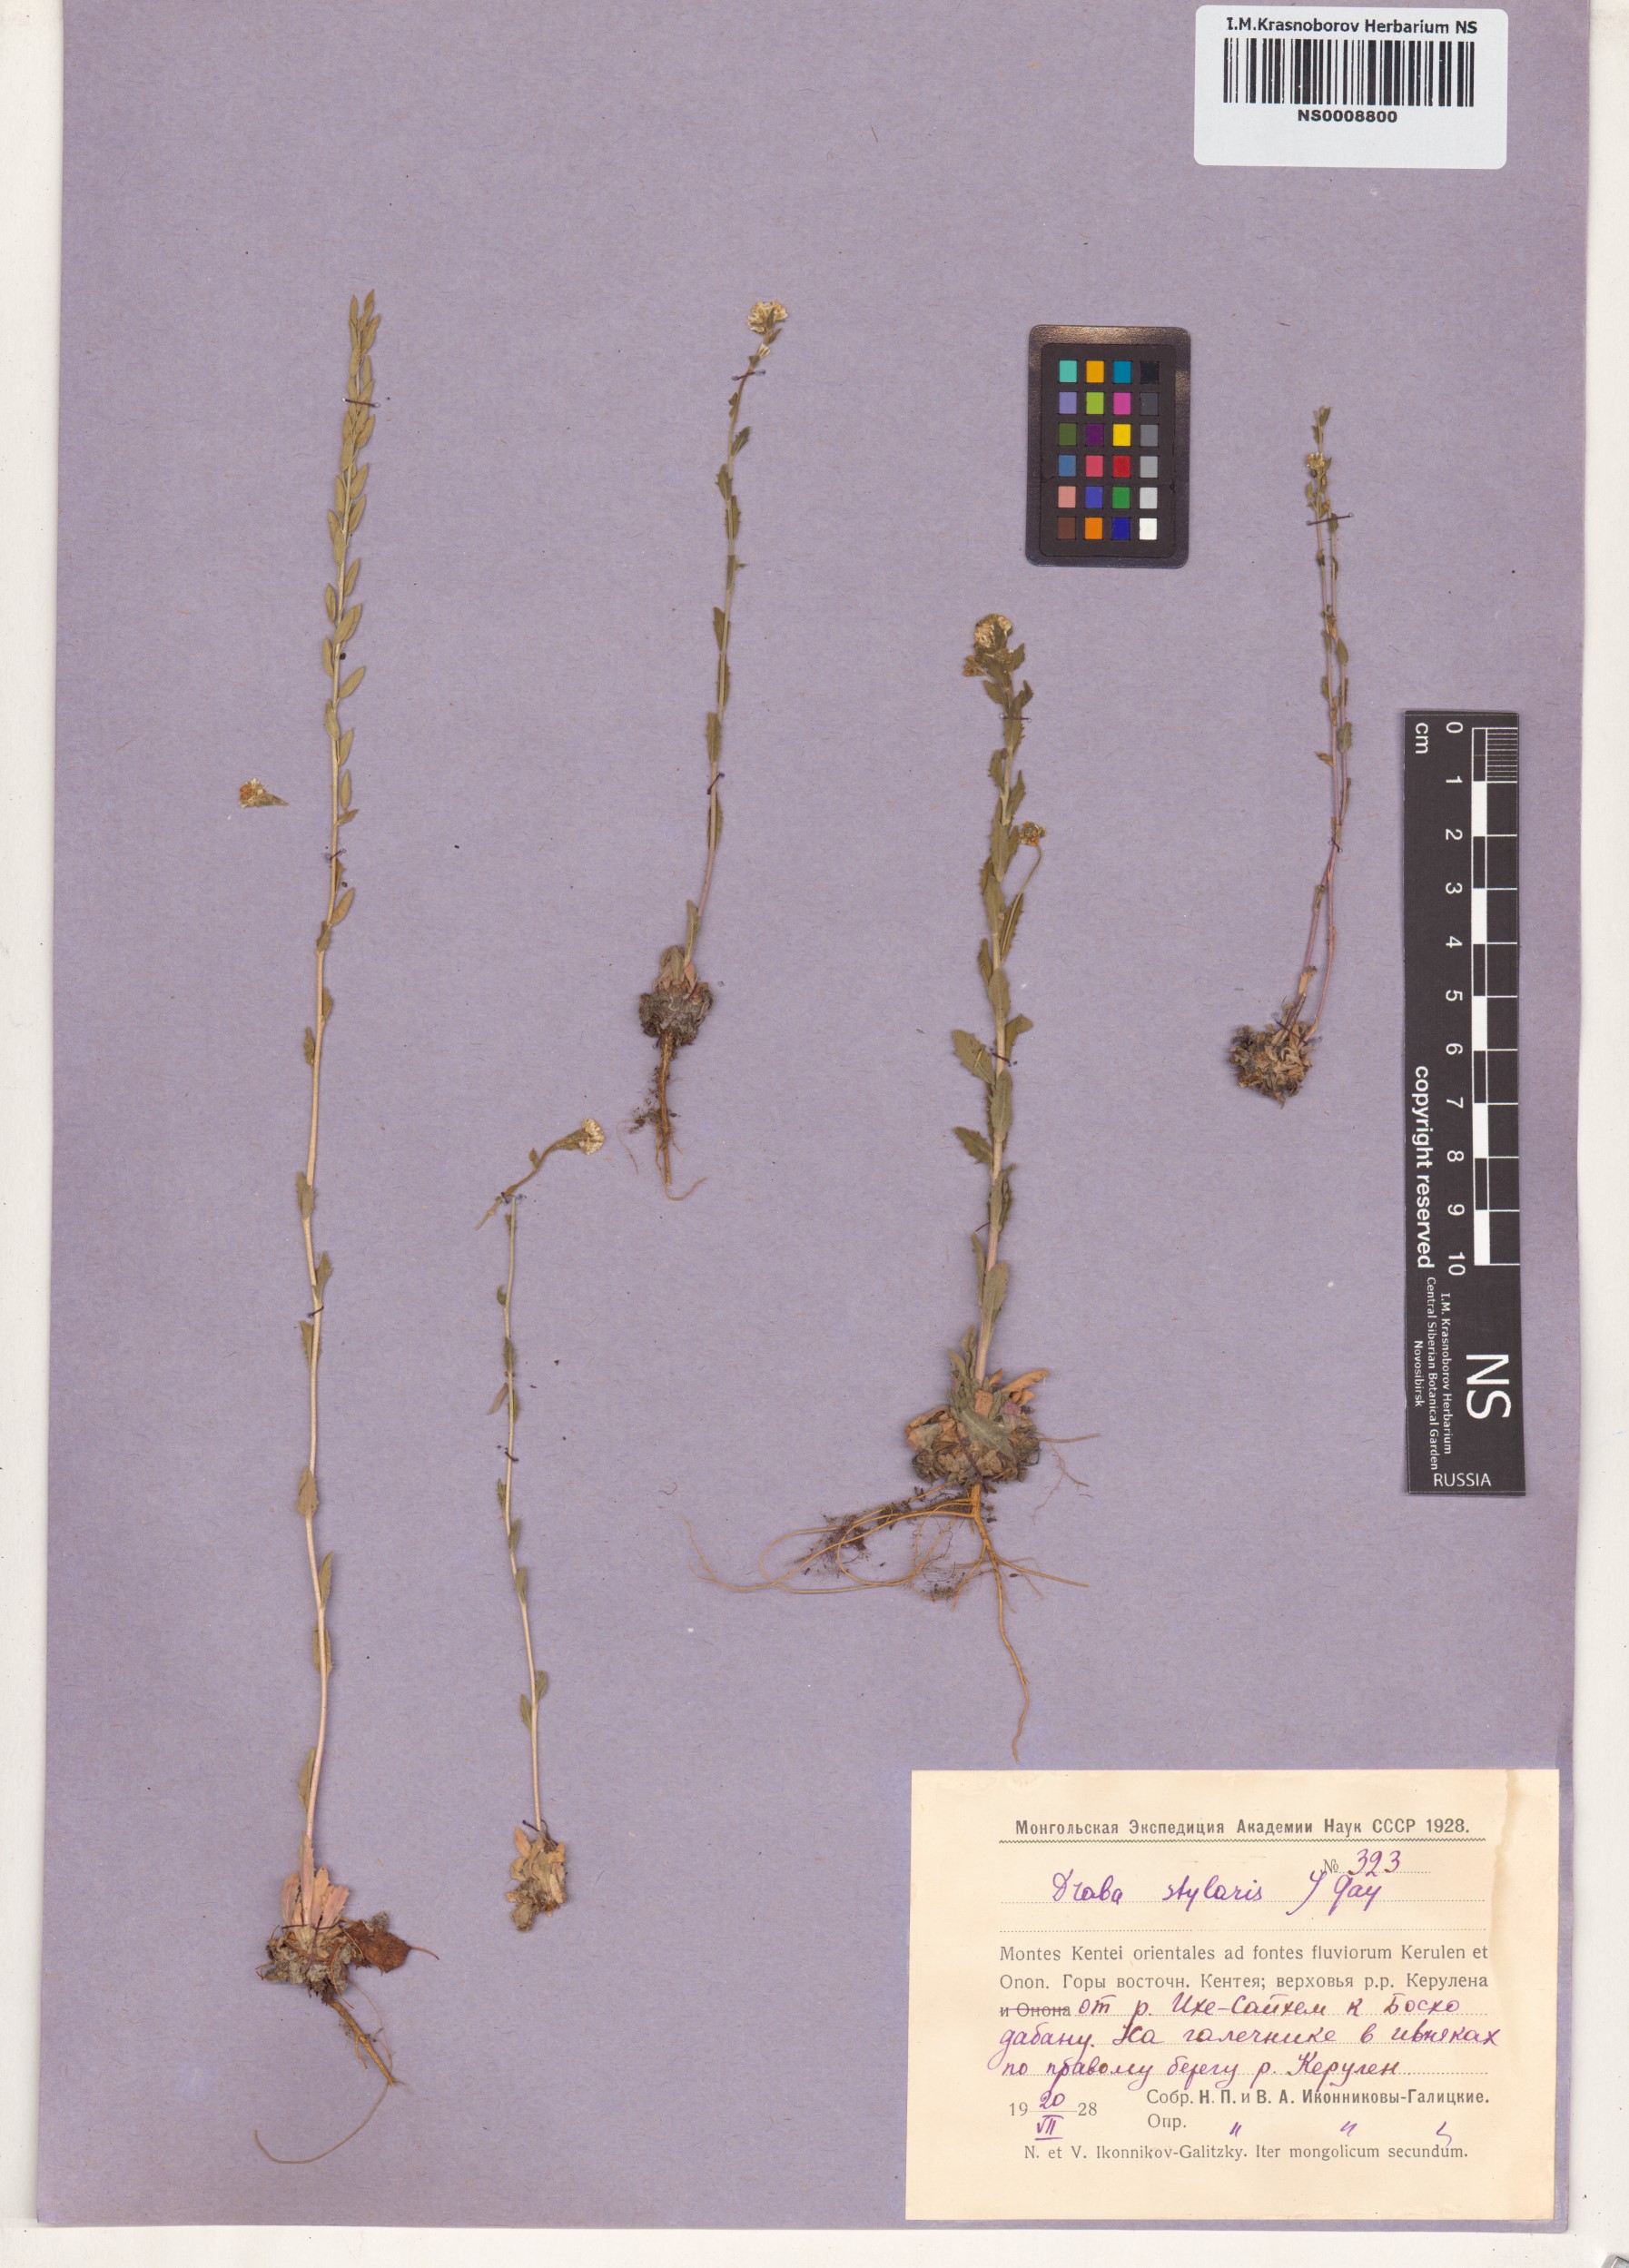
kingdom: Plantae
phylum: Tracheophyta
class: Magnoliopsida
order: Brassicales
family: Brassicaceae
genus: Draba
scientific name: Draba thomasii
